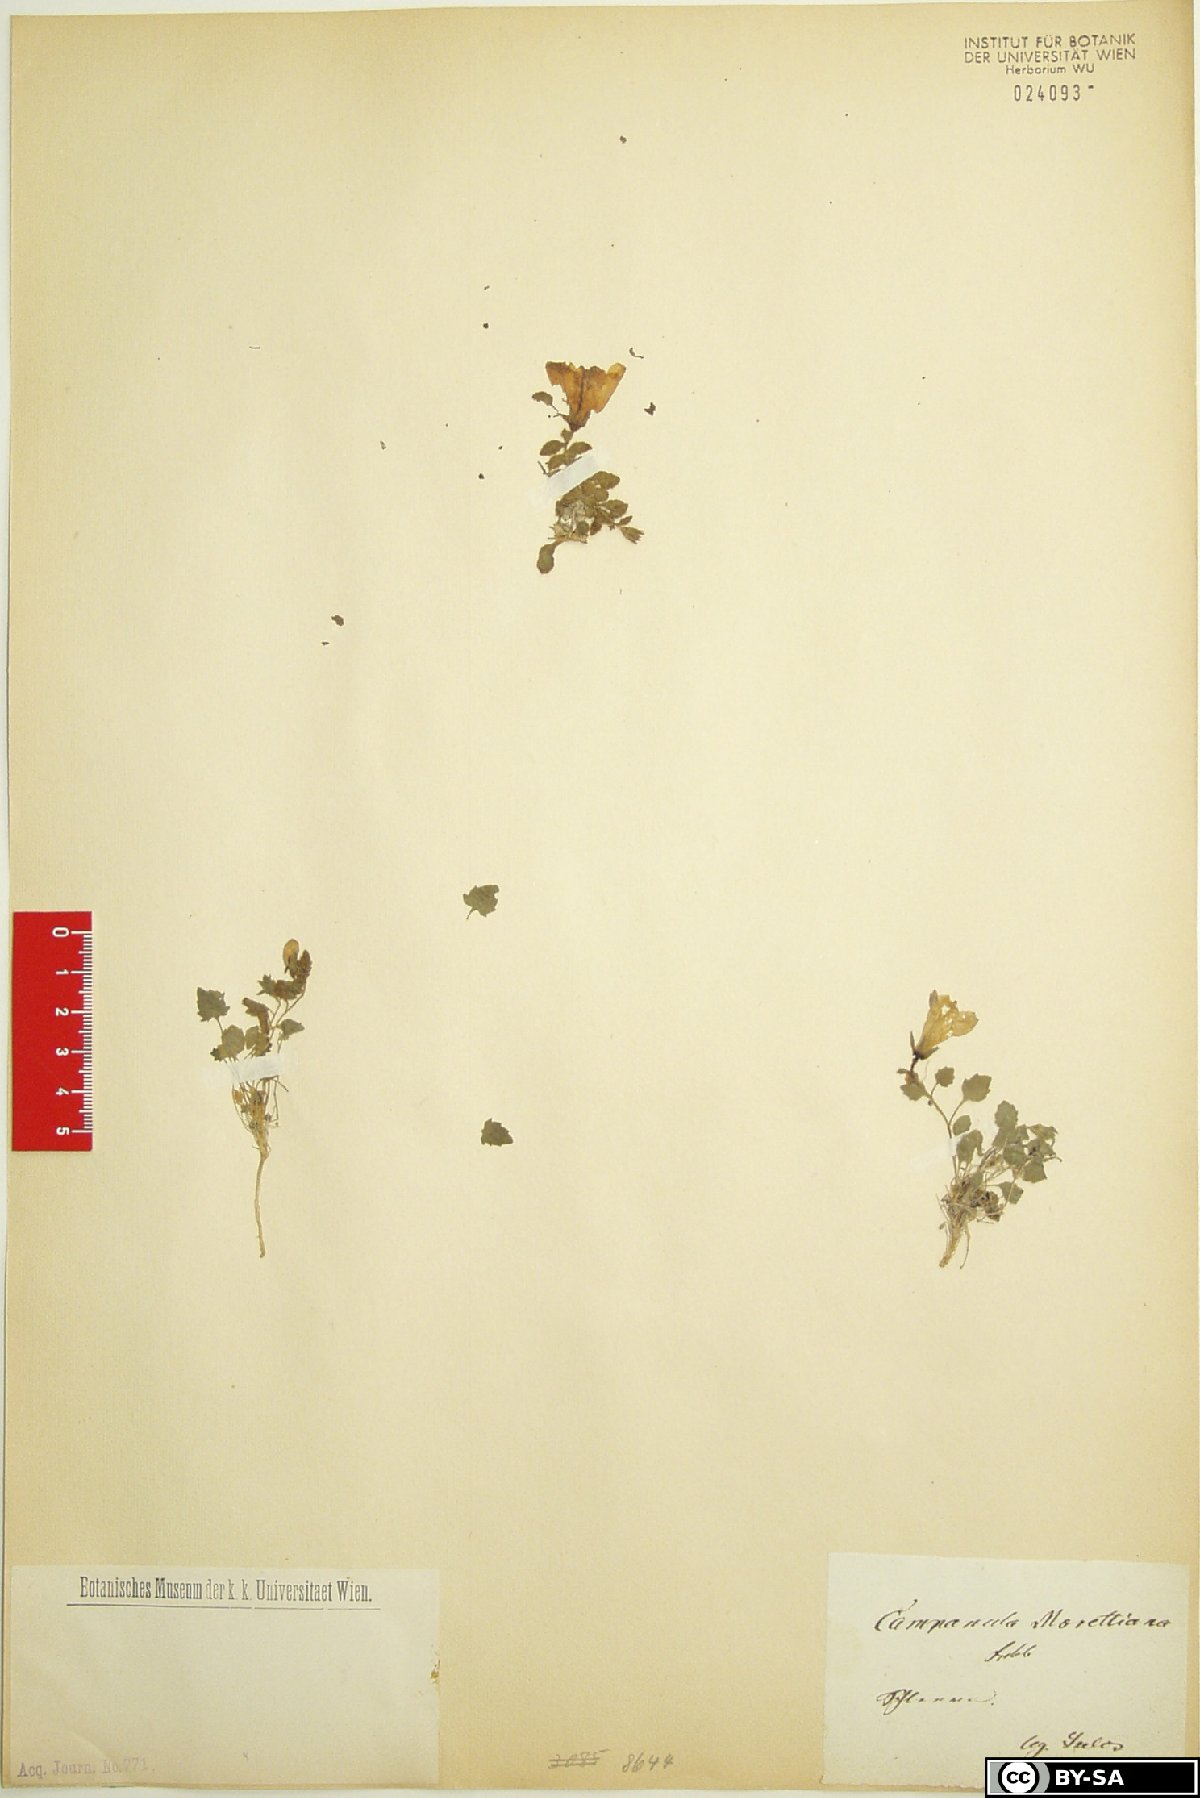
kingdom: Plantae
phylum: Tracheophyta
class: Magnoliopsida
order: Asterales
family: Campanulaceae
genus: Campanula
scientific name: Campanula morettiana
